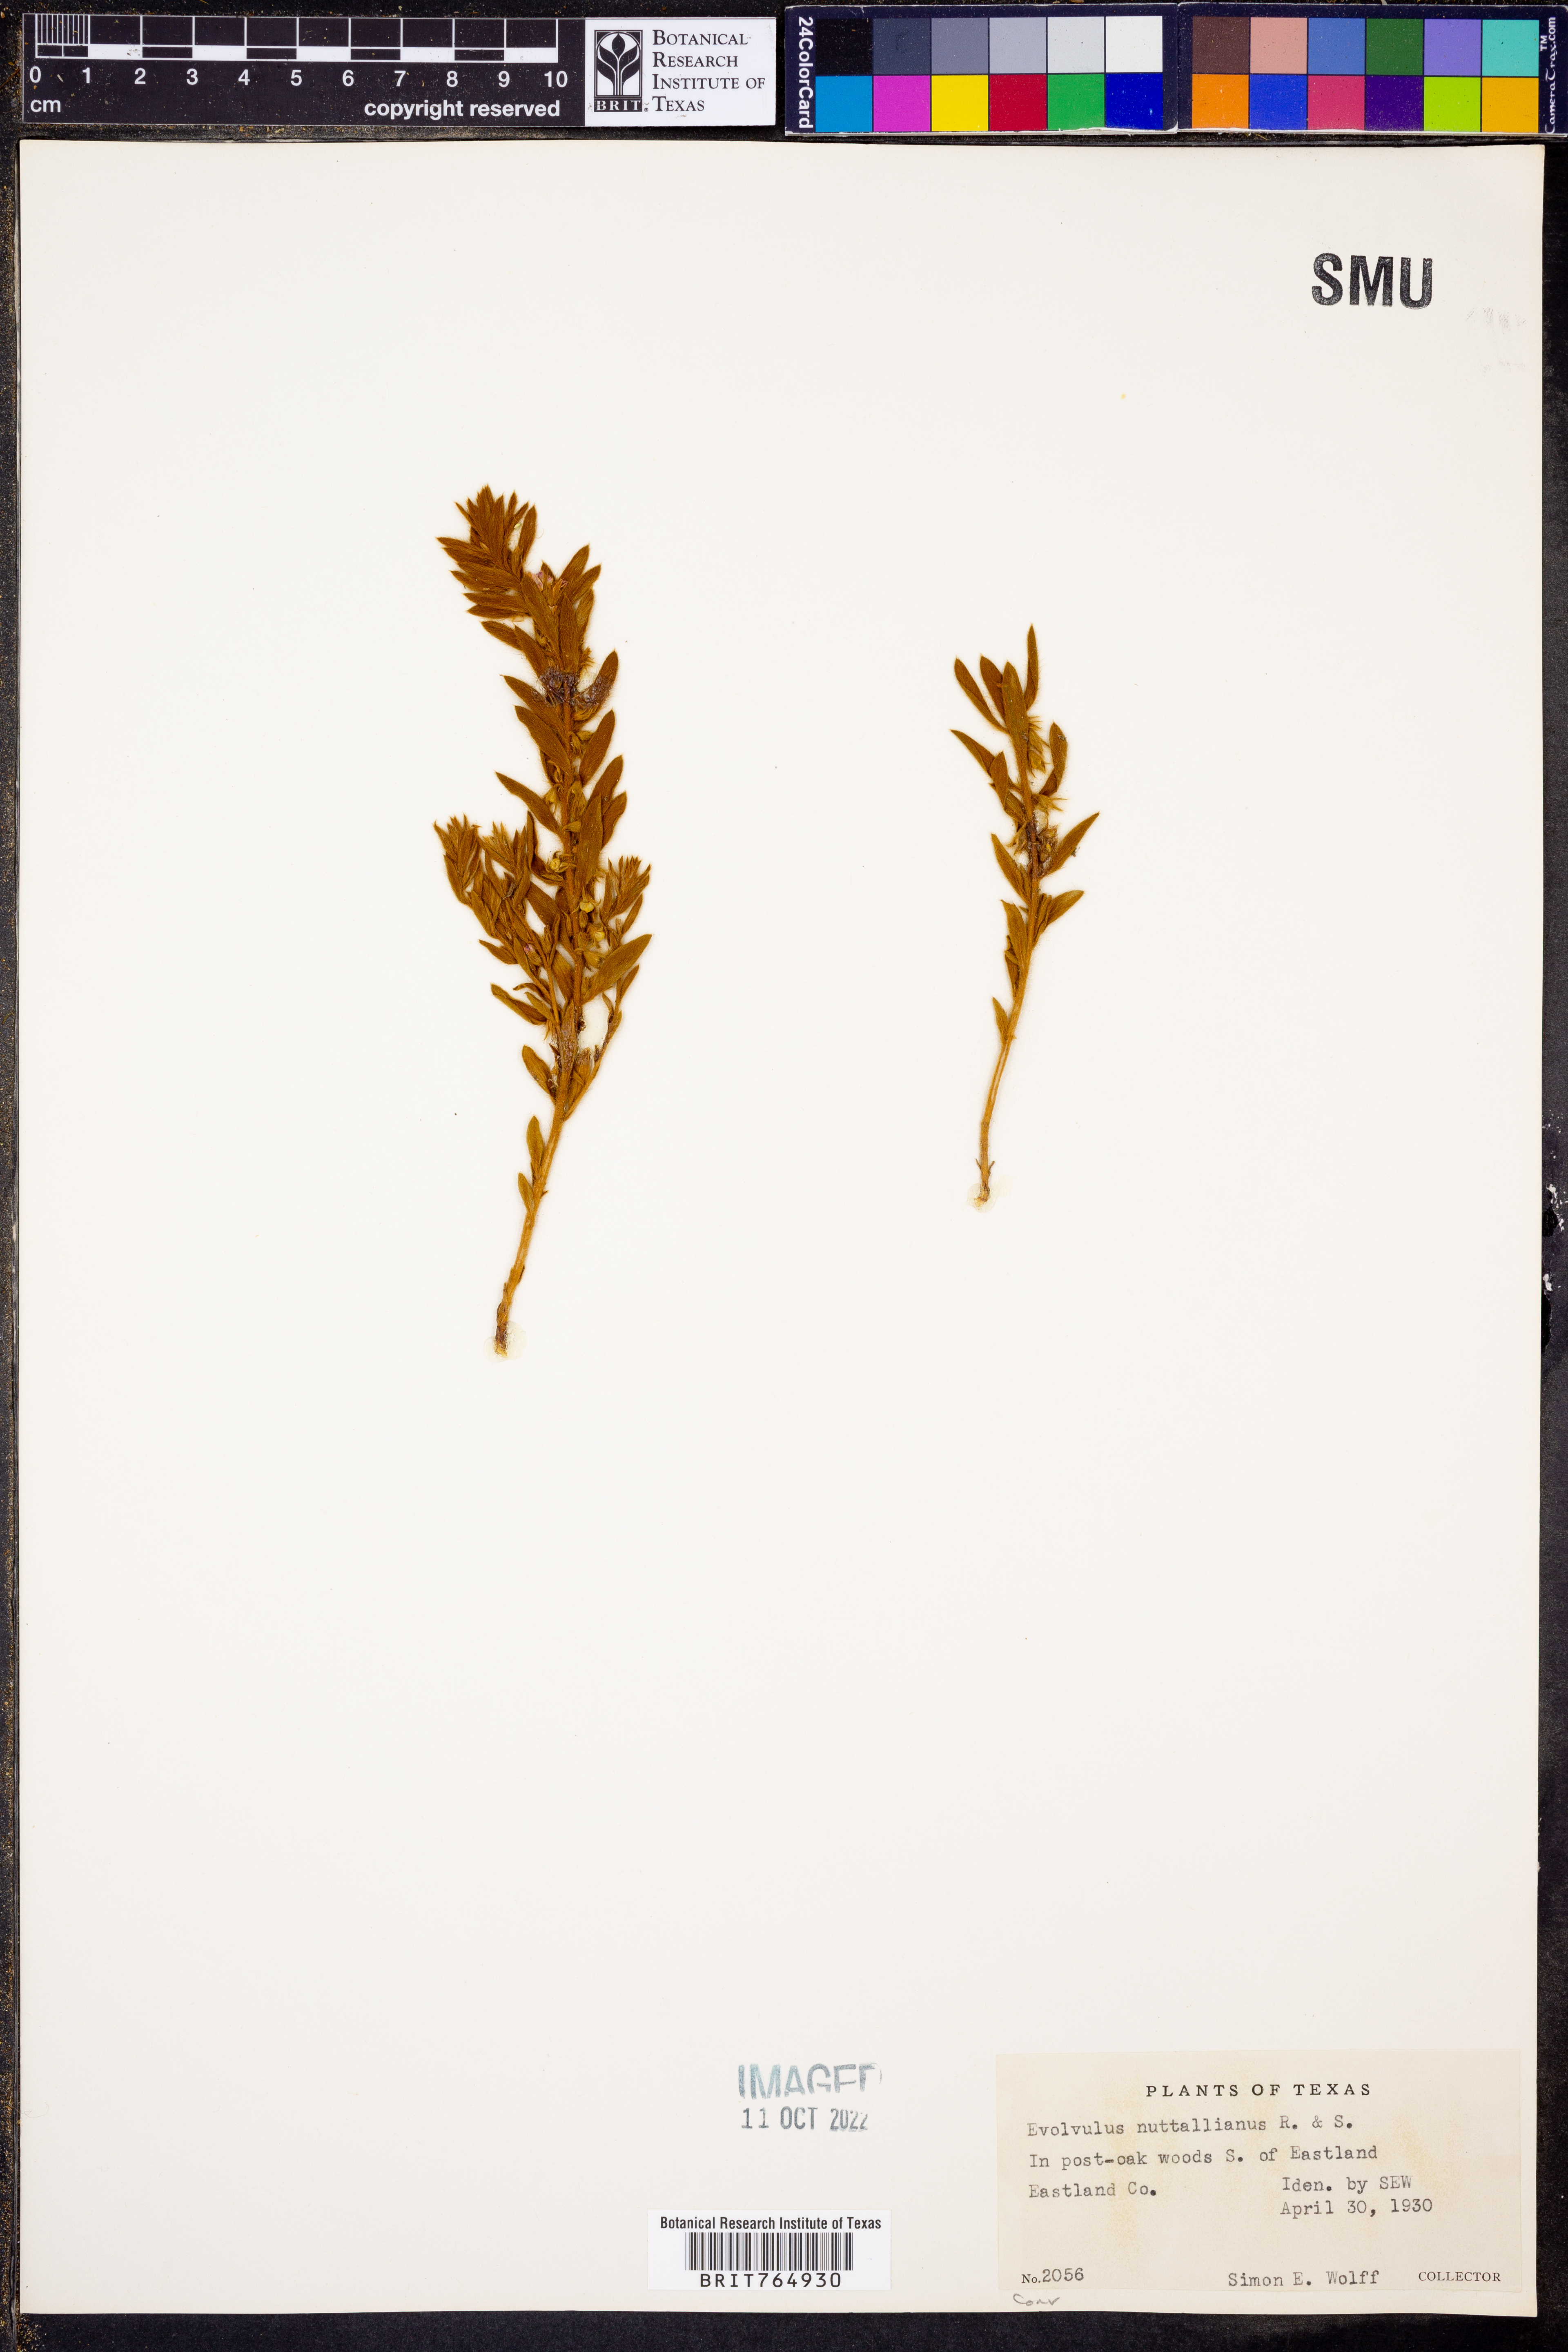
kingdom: Plantae
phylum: Tracheophyta
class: Magnoliopsida
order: Solanales
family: Convolvulaceae
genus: Evolvulus
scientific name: Evolvulus nuttallianus
